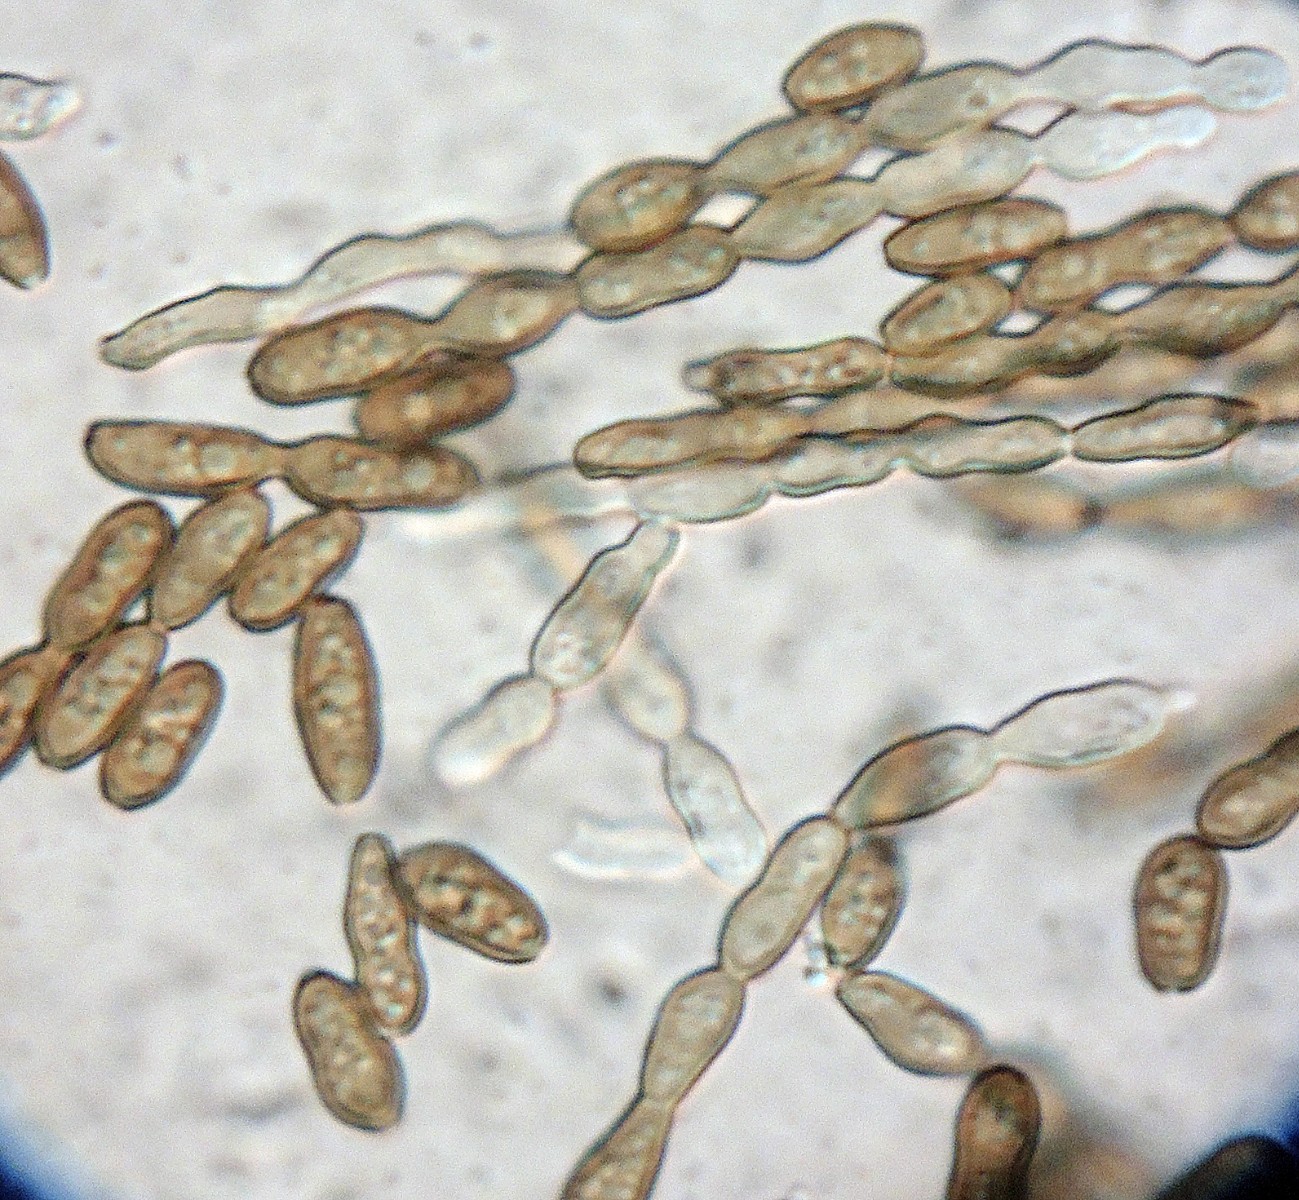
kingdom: Fungi
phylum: Ascomycota
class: Eurotiomycetes
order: Chaetothyriales
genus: Xylohypha
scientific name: Xylohypha nigrescens
